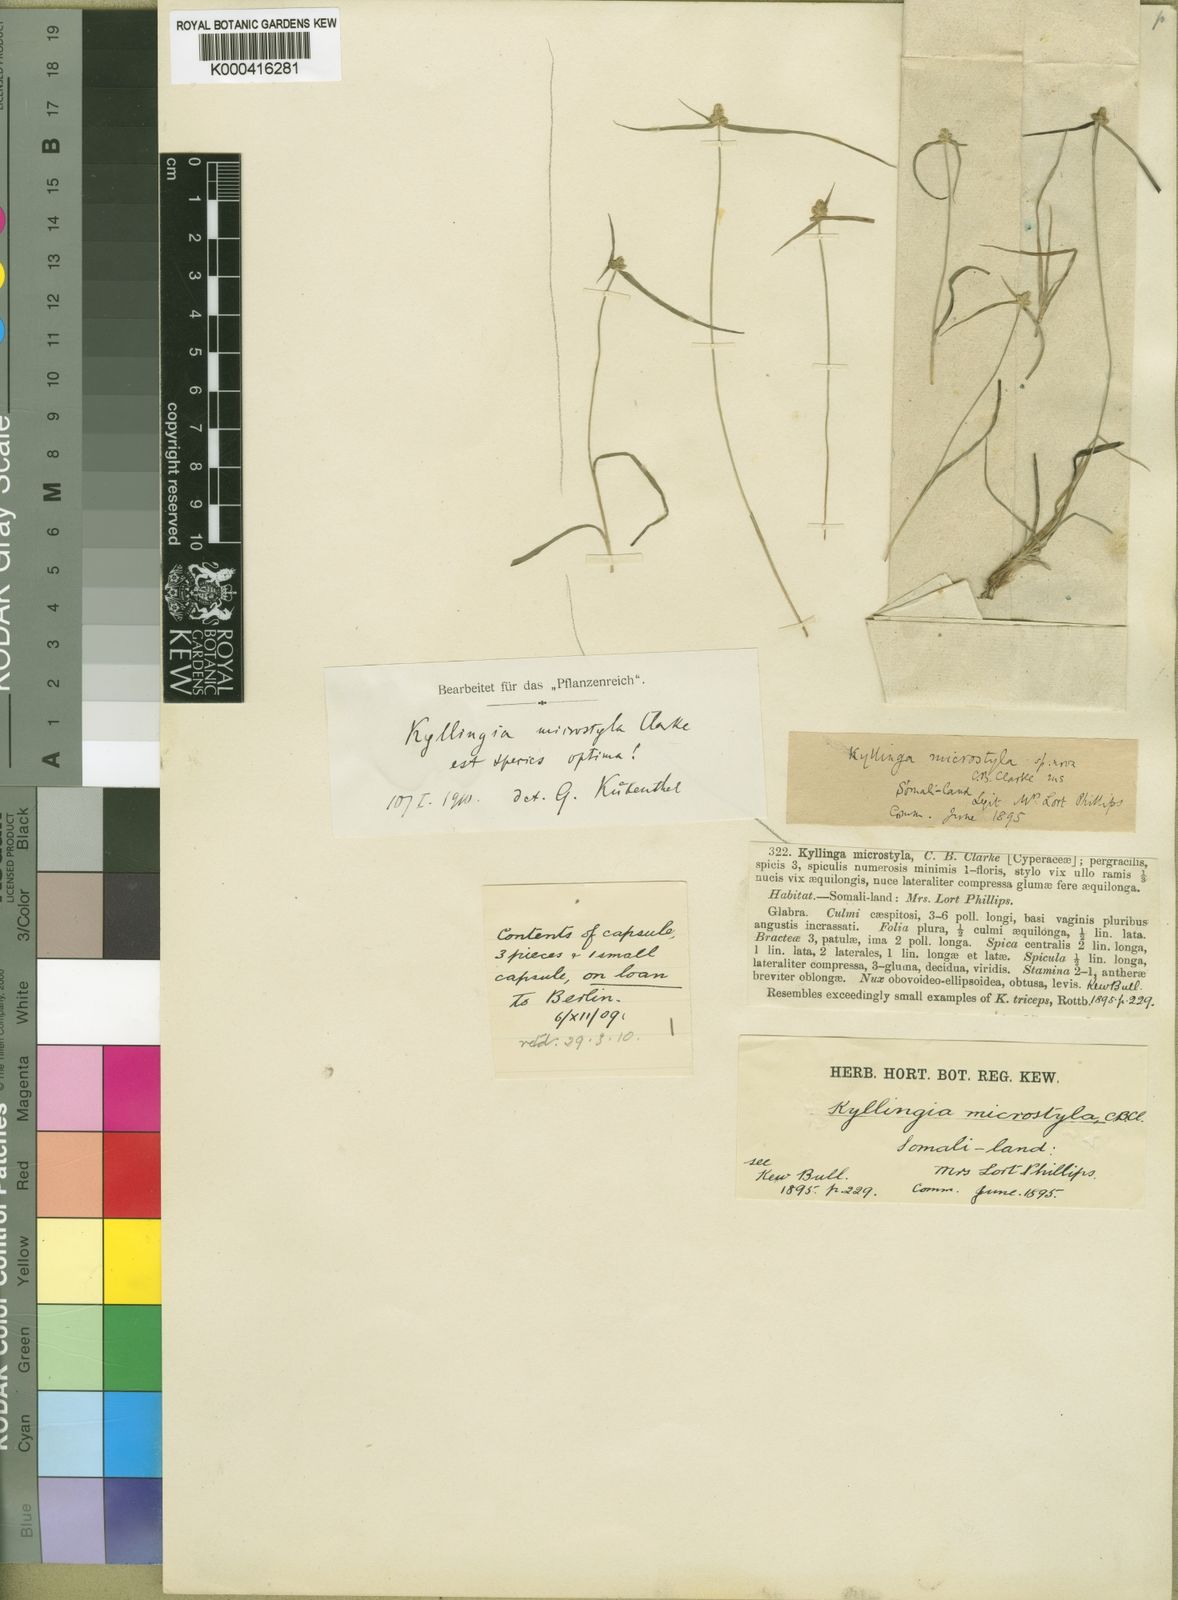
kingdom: Plantae
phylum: Tracheophyta
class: Liliopsida
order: Poales
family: Cyperaceae
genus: Cyperus
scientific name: Cyperus microstylus
